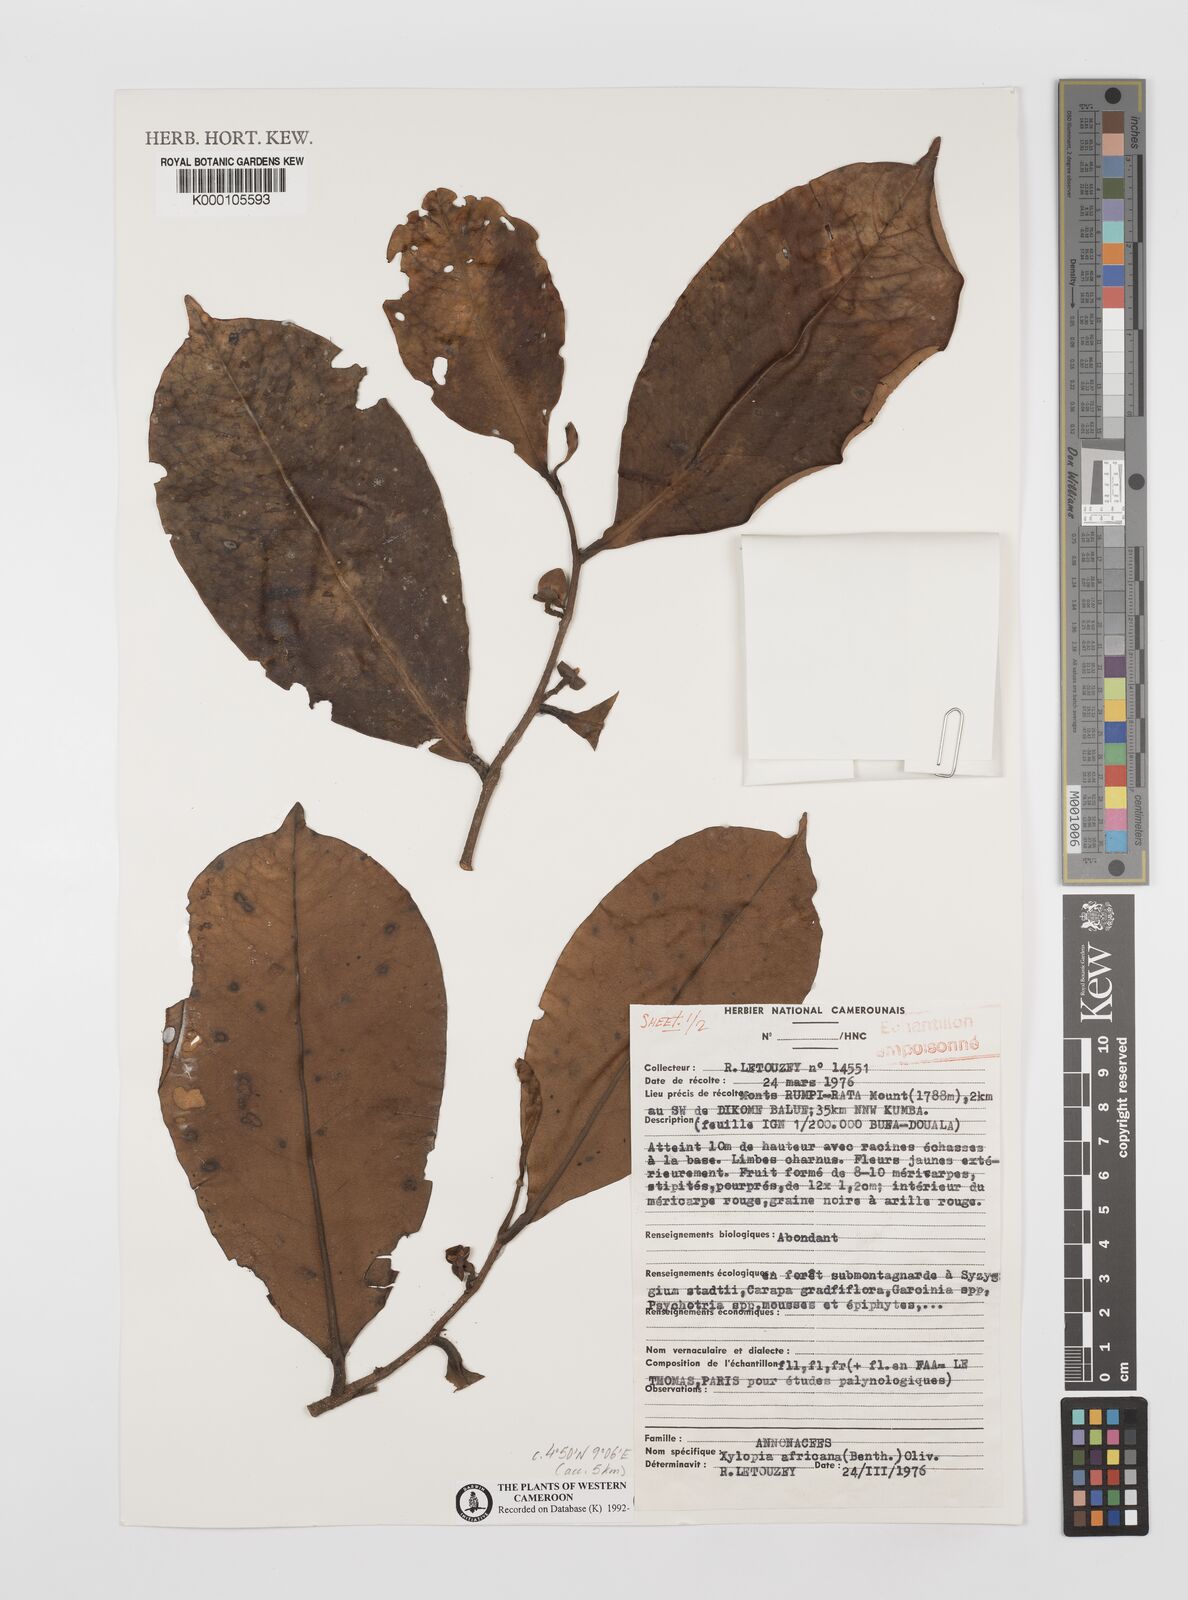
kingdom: Plantae
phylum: Tracheophyta
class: Magnoliopsida
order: Magnoliales
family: Annonaceae
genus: Xylopia
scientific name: Xylopia africana
